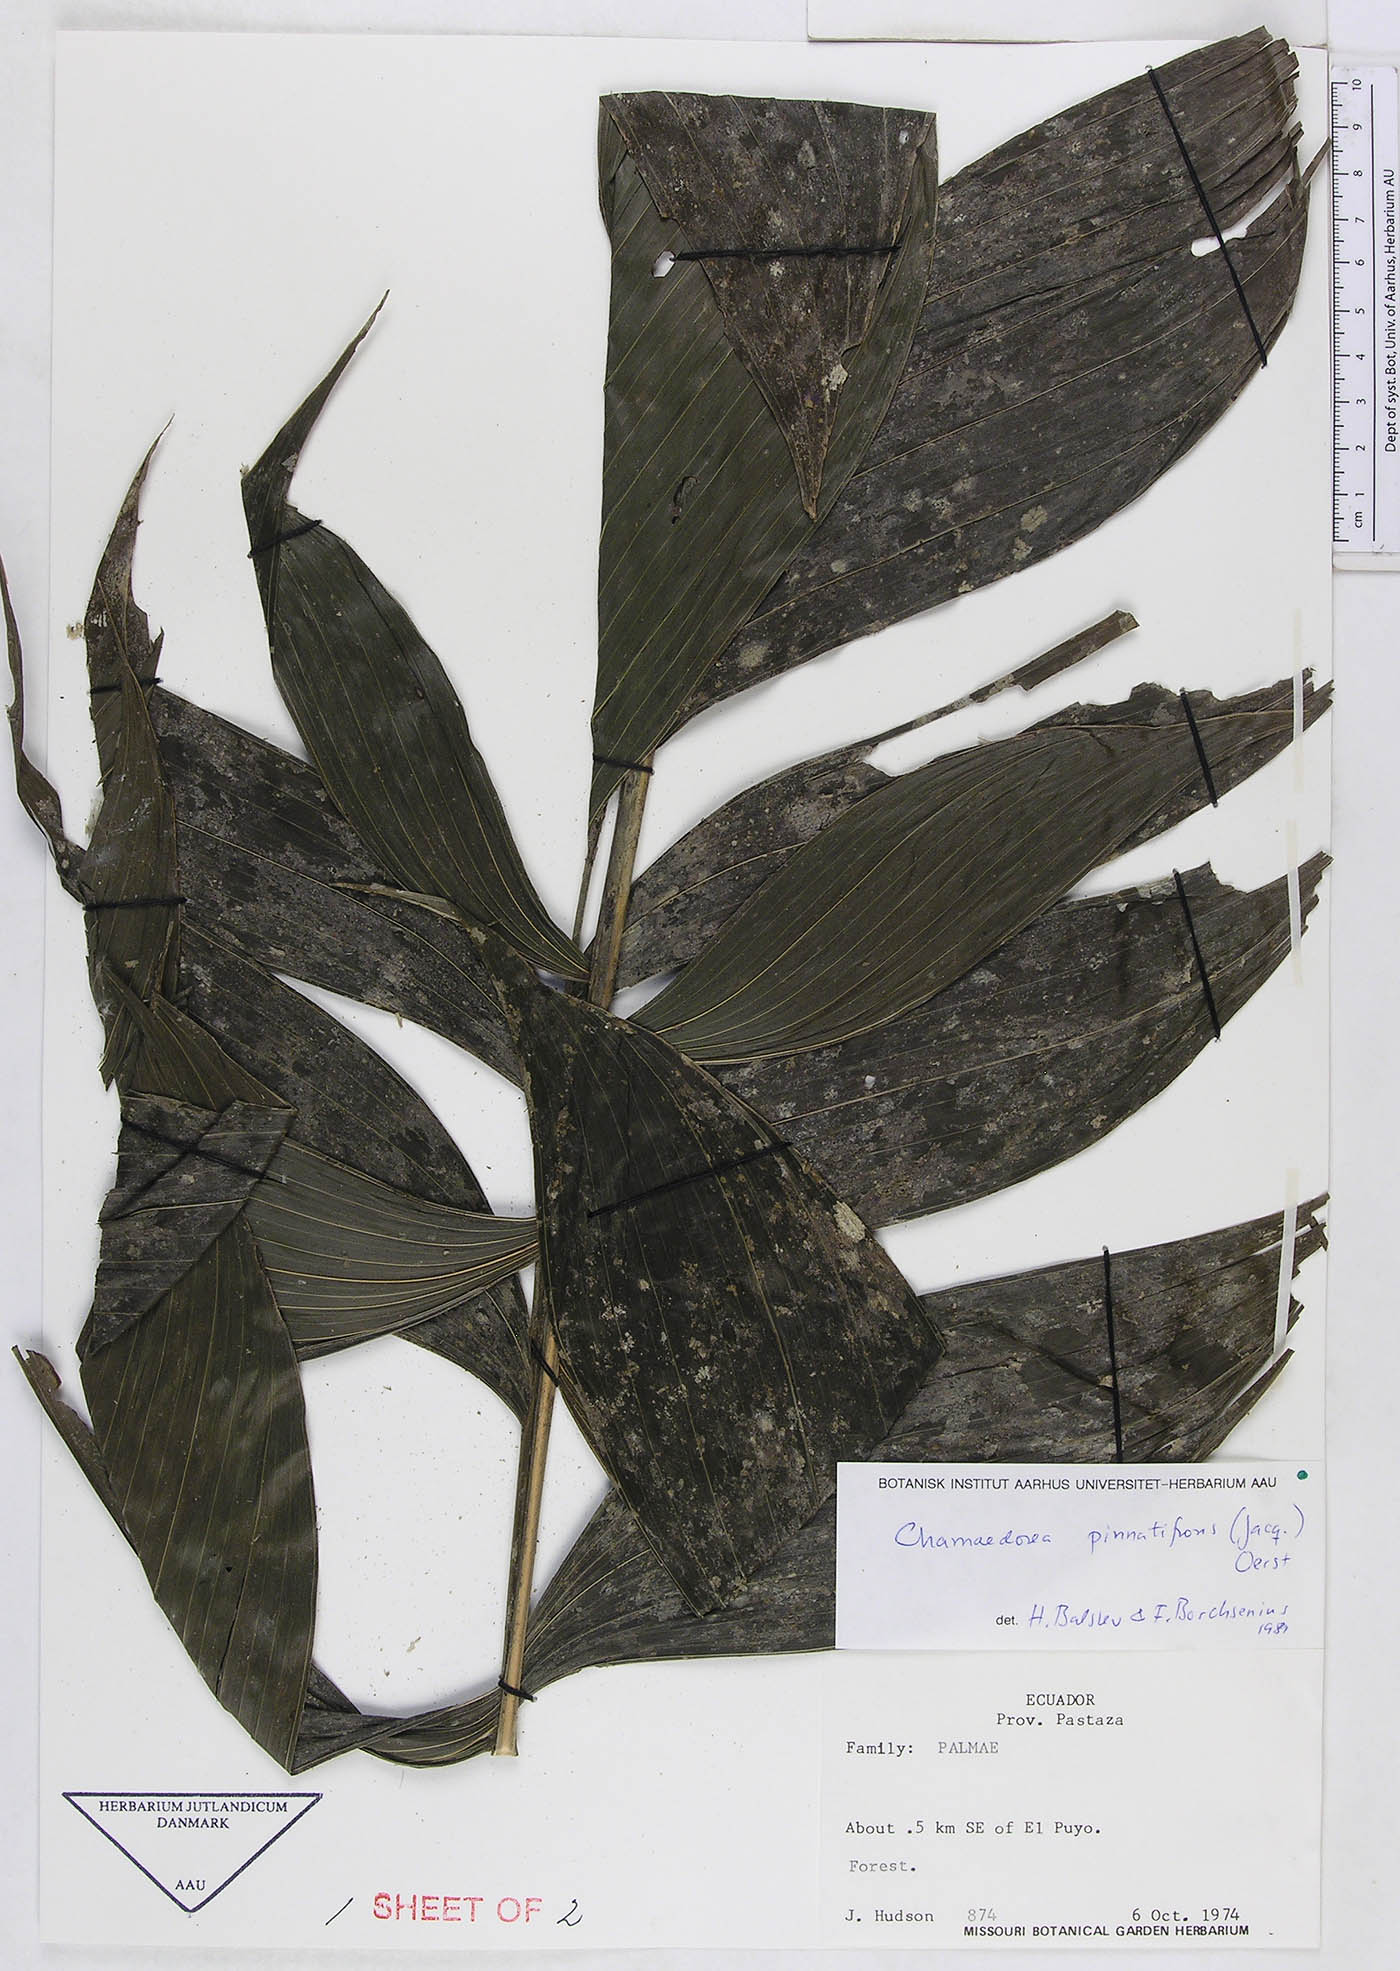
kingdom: Plantae
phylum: Tracheophyta
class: Liliopsida
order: Arecales
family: Arecaceae
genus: Chamaedorea
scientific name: Chamaedorea pinnatifrons
